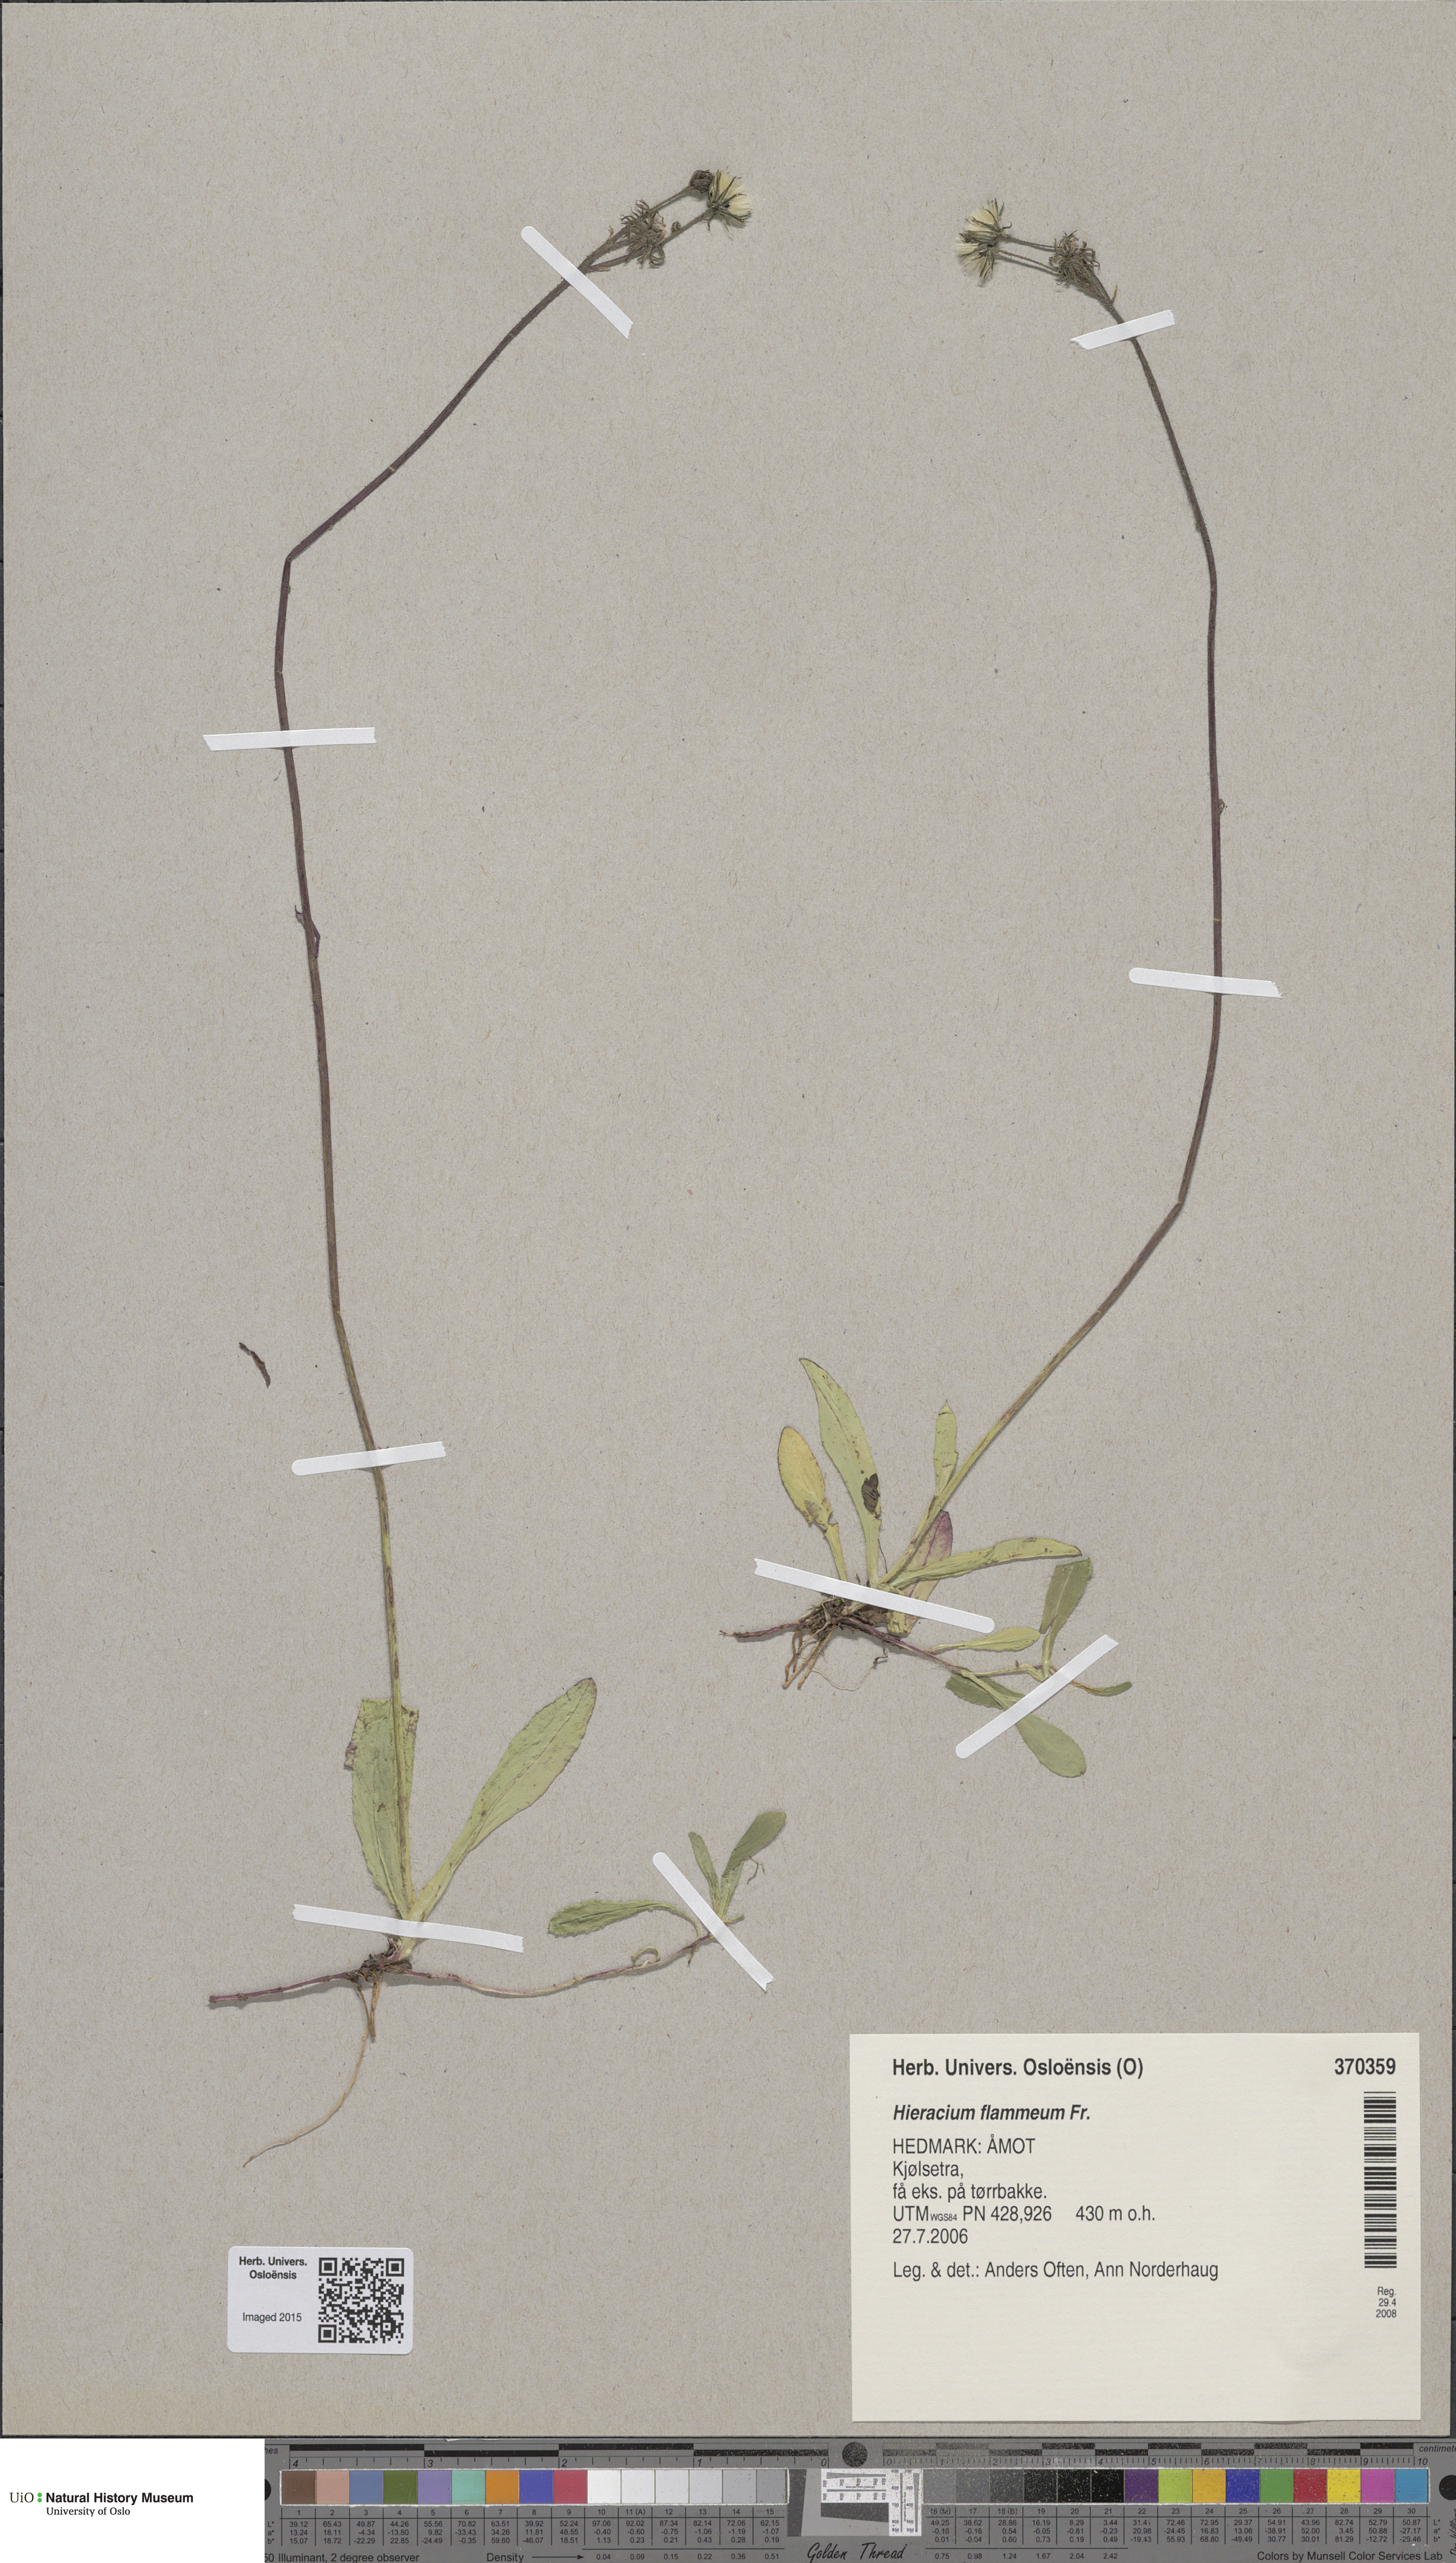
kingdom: Plantae
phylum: Tracheophyta
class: Magnoliopsida
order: Asterales
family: Asteraceae
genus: Pilosella
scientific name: Pilosella fuscoatra
